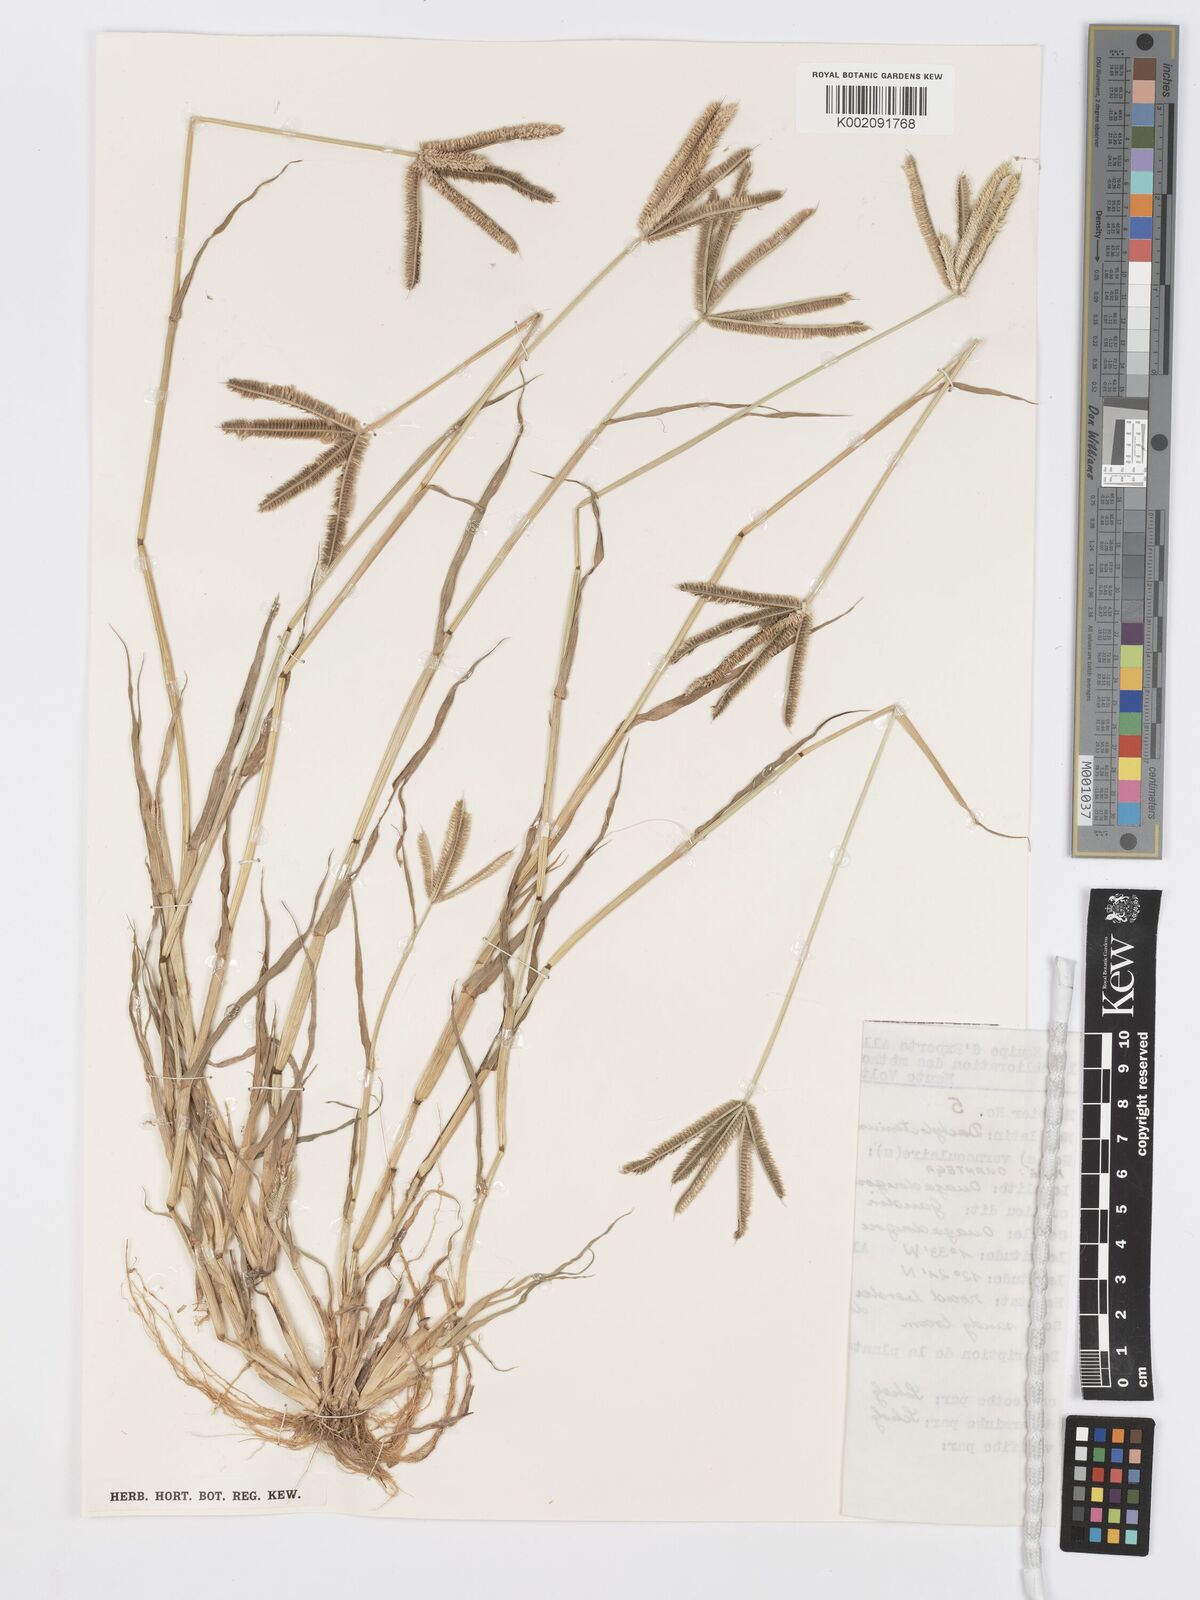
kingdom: Plantae
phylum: Tracheophyta
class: Liliopsida
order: Poales
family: Poaceae
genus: Dactyloctenium
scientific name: Dactyloctenium aegyptium
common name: Egyptian grass
